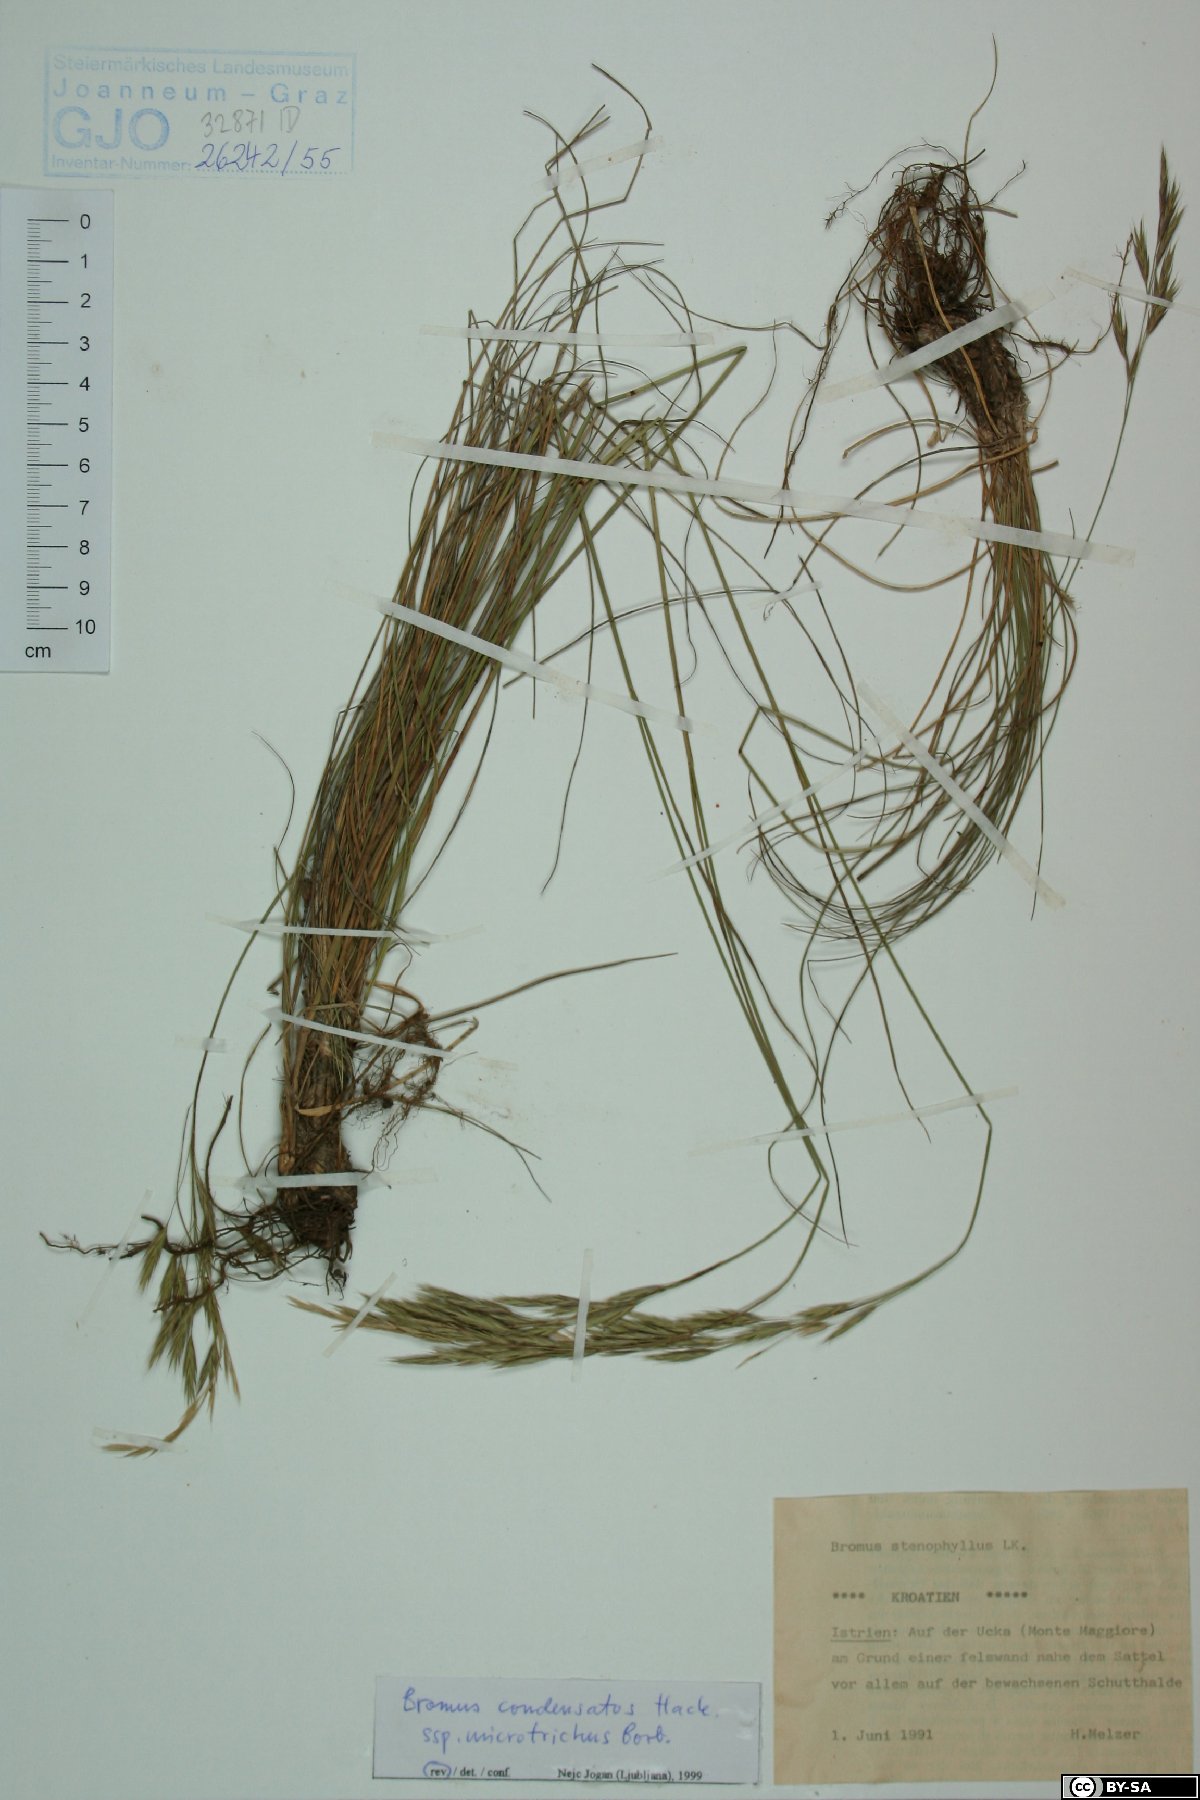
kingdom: Plantae
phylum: Tracheophyta
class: Liliopsida
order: Poales
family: Poaceae
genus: Bromus
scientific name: Bromus condensatus
